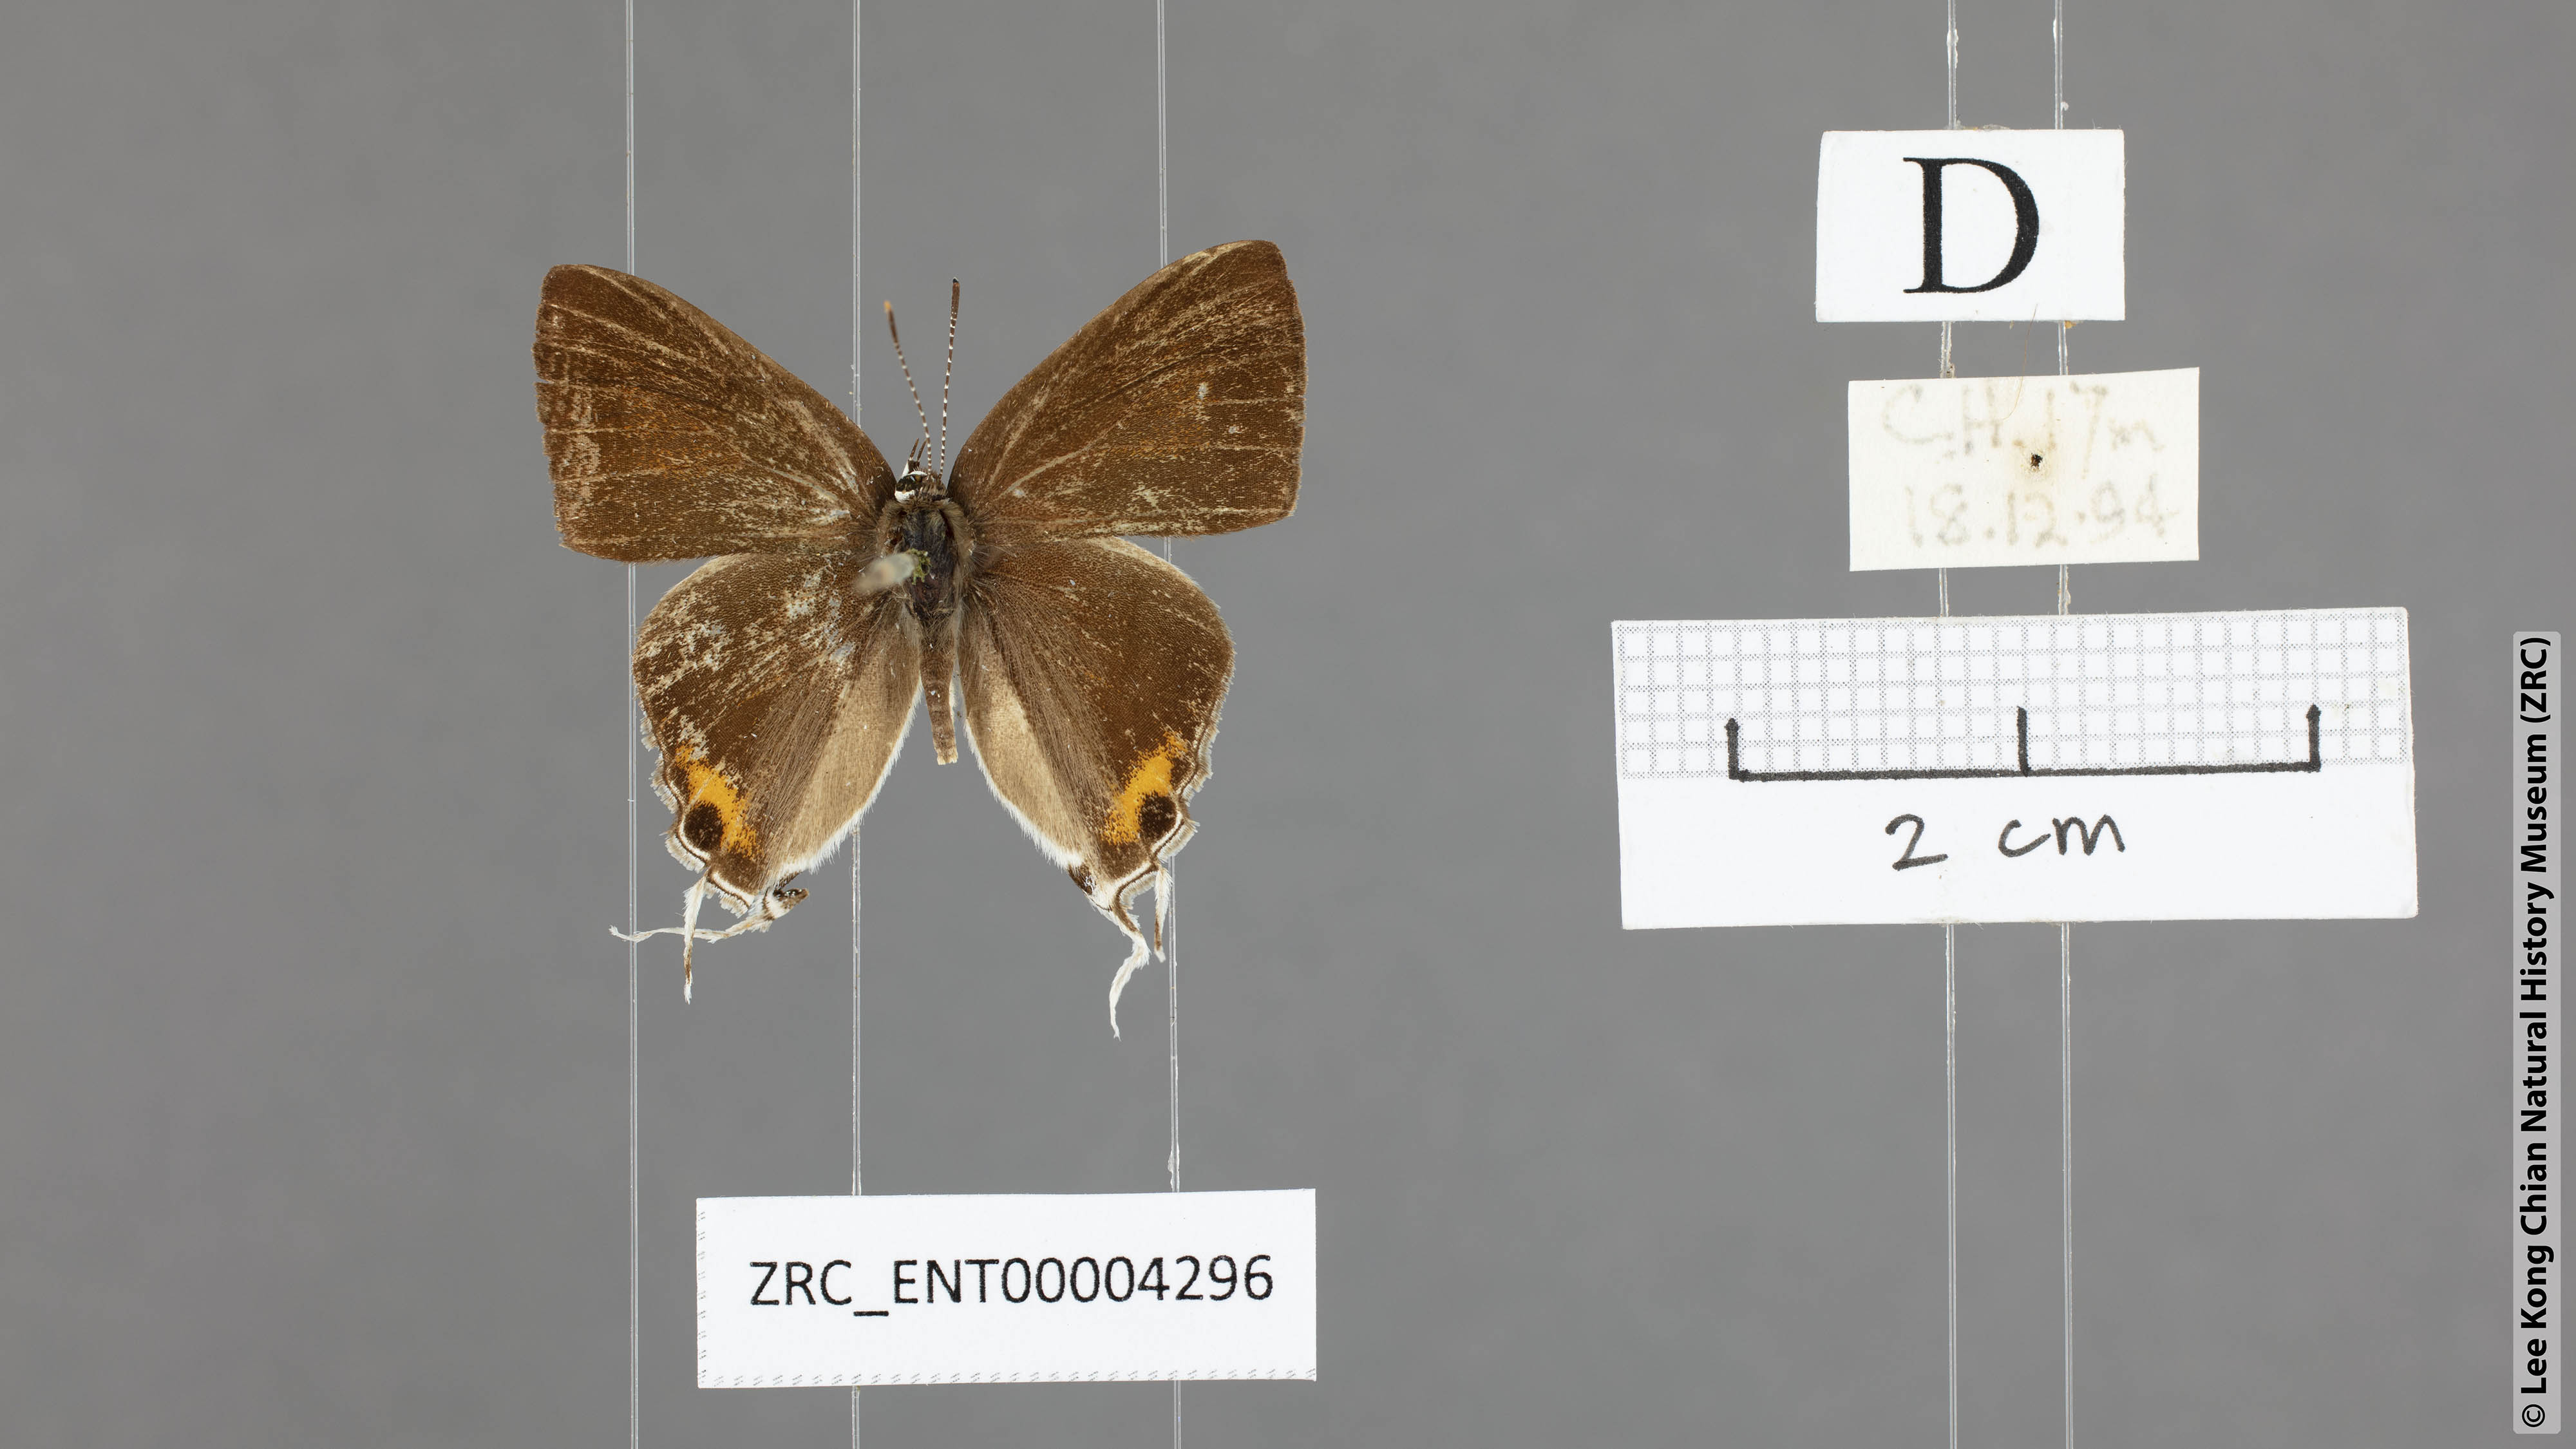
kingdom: Animalia
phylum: Arthropoda
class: Insecta
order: Lepidoptera
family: Lycaenidae
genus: Hypolycaena
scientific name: Hypolycaena thecloides
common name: Dark tit
